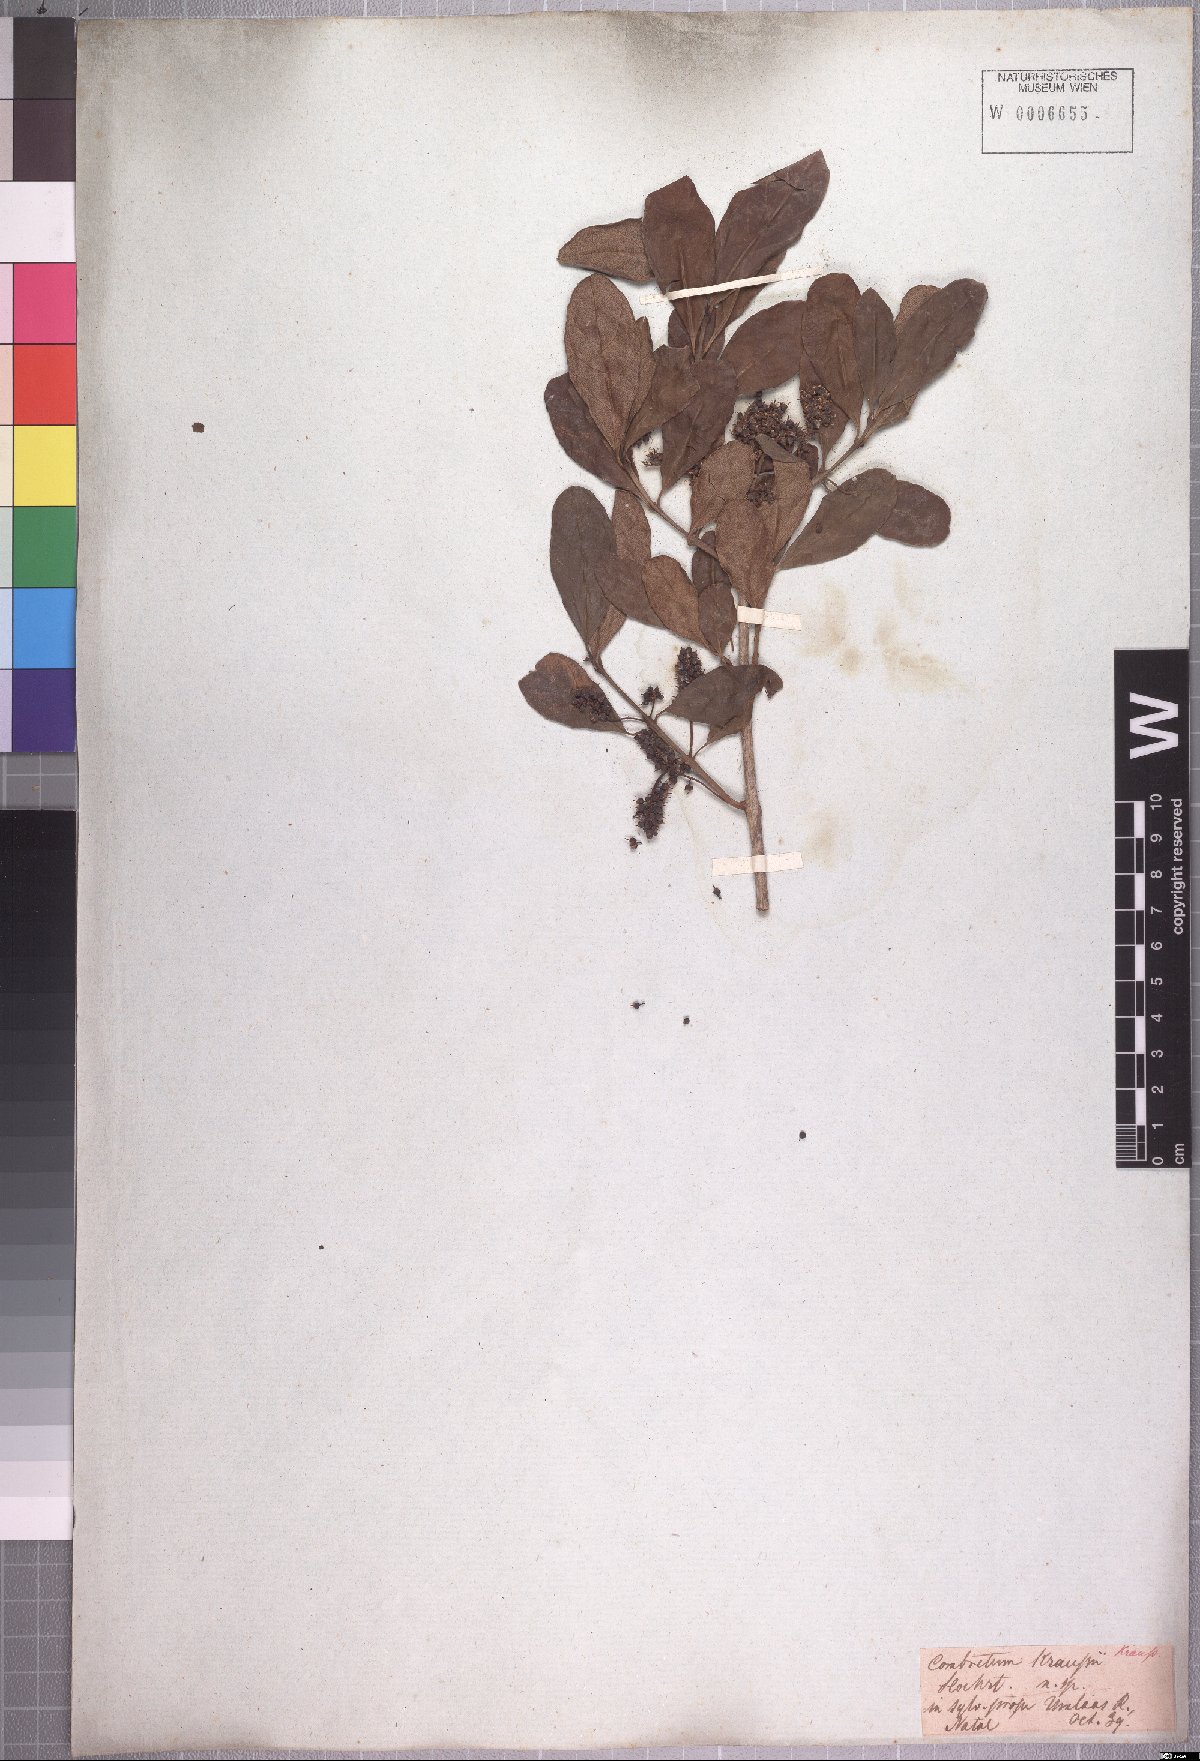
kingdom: Plantae
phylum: Tracheophyta
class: Magnoliopsida
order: Myrtales
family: Combretaceae
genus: Combretum
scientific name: Combretum kraussii
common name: Forest bushwillow
